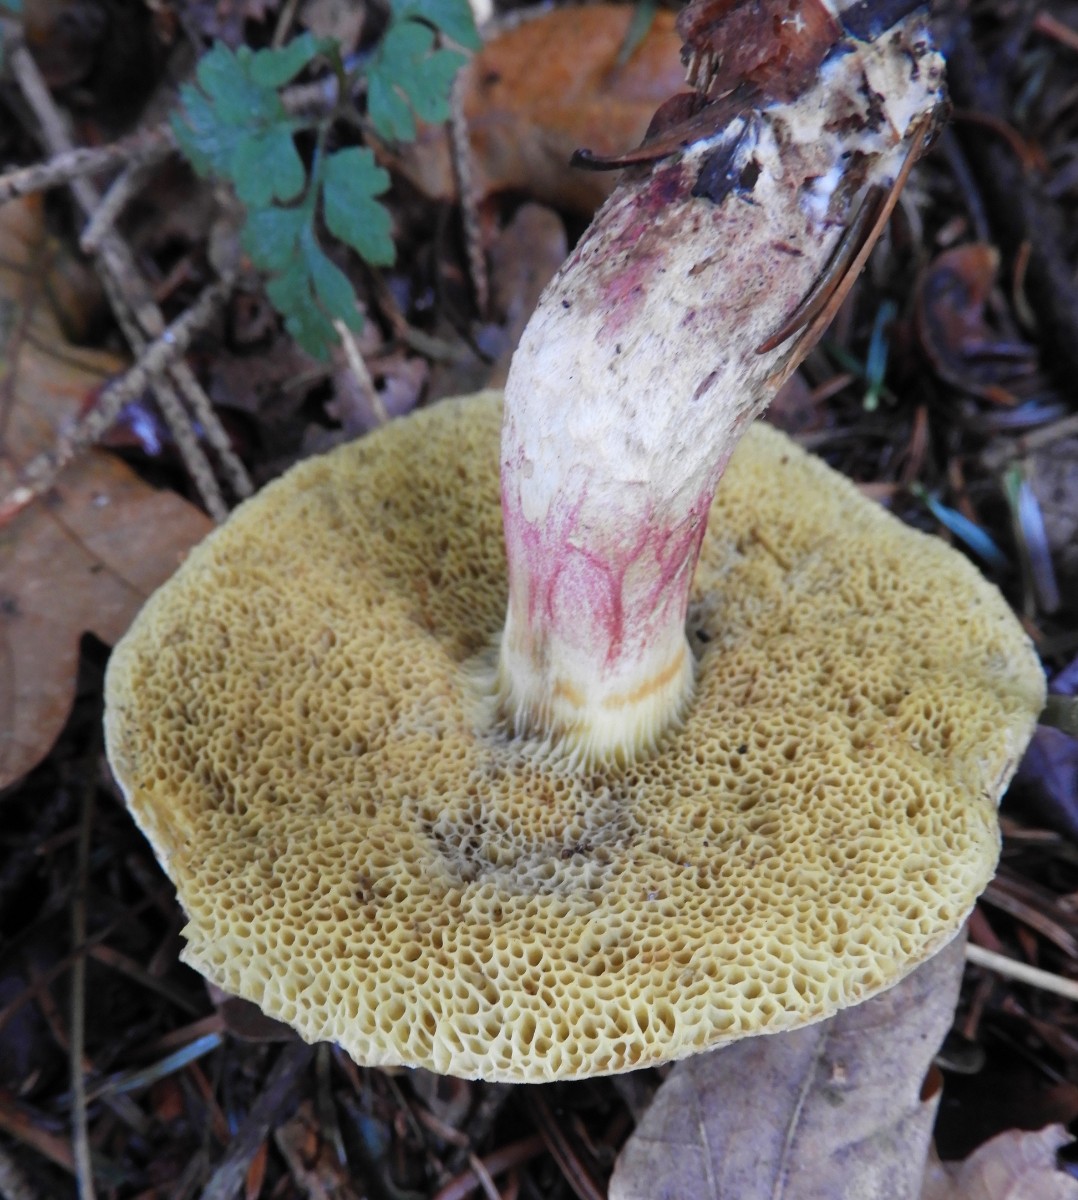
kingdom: Fungi
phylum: Basidiomycota
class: Agaricomycetes
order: Boletales
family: Boletaceae
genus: Xerocomellus
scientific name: Xerocomellus porosporus
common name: hvidsprukken rørhat
